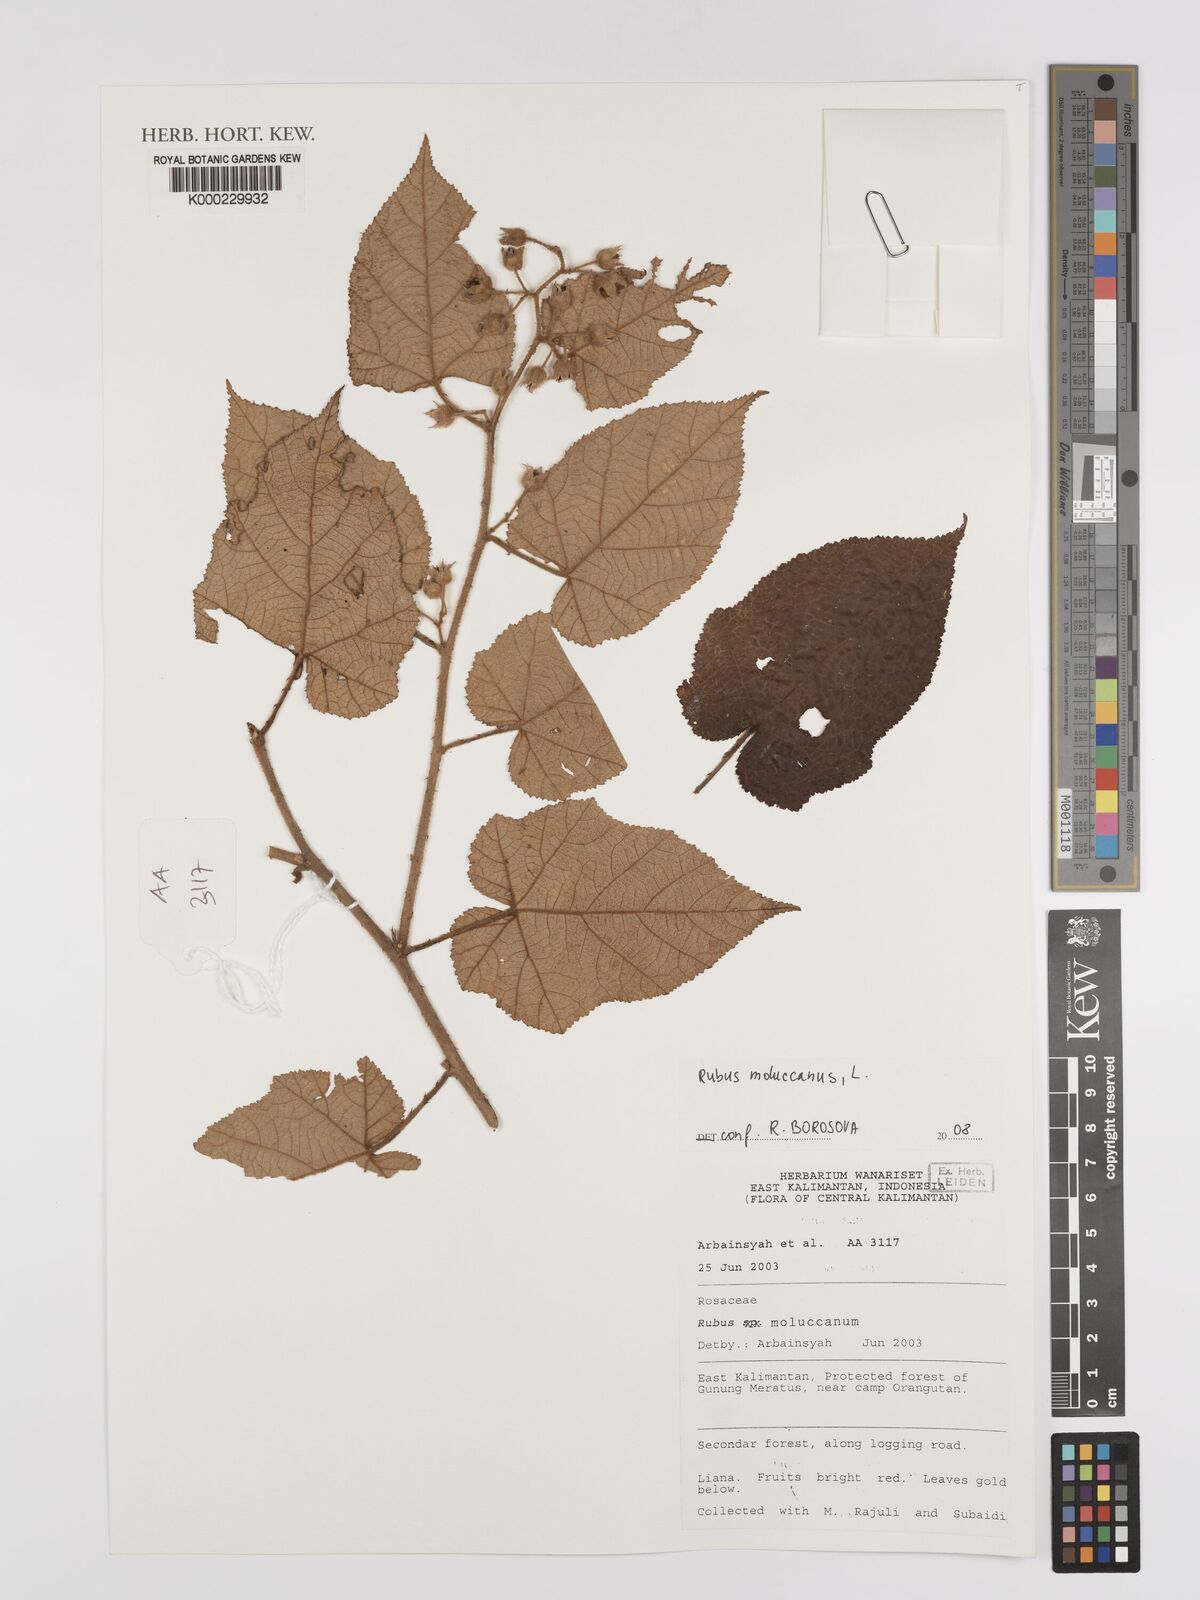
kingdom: Plantae
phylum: Tracheophyta
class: Magnoliopsida
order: Rosales
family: Rosaceae
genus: Rubus
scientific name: Rubus moluccanus
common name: Wild raspberry
